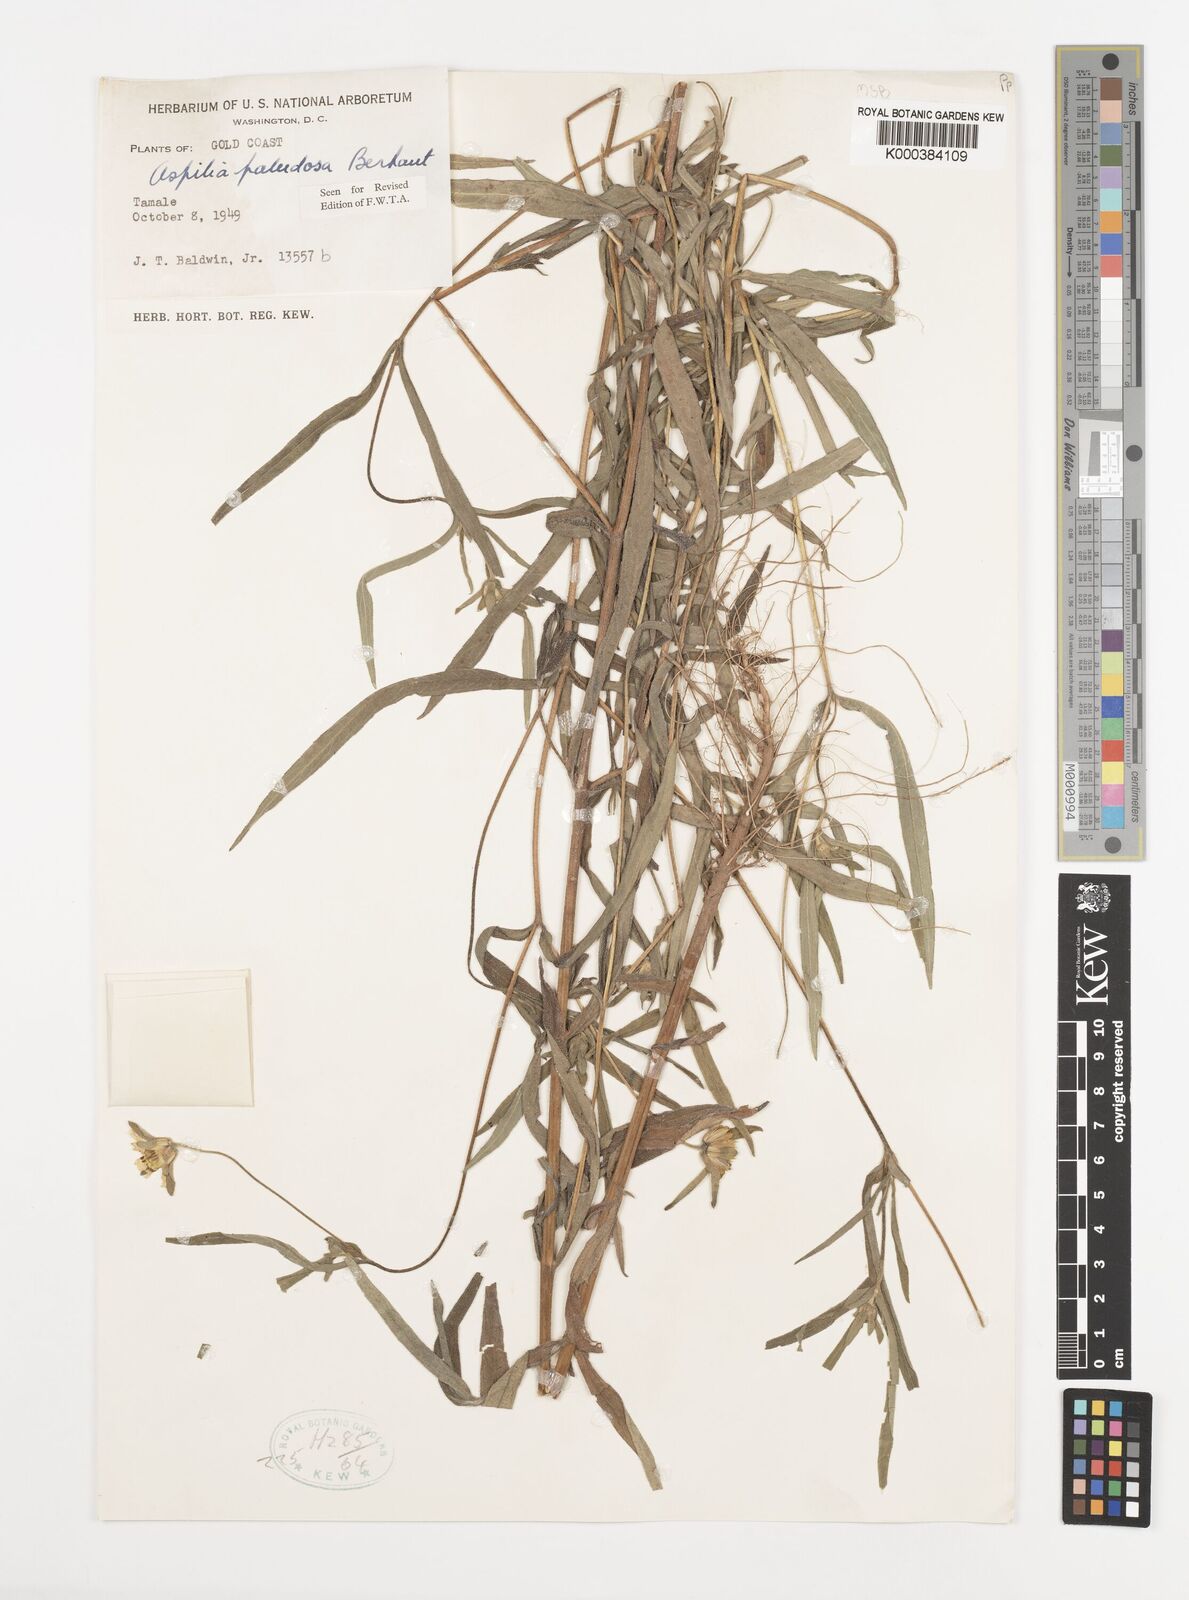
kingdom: Plantae
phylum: Tracheophyta
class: Magnoliopsida
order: Asterales
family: Asteraceae
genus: Lipotriche
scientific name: Lipotriche rhombifolia
